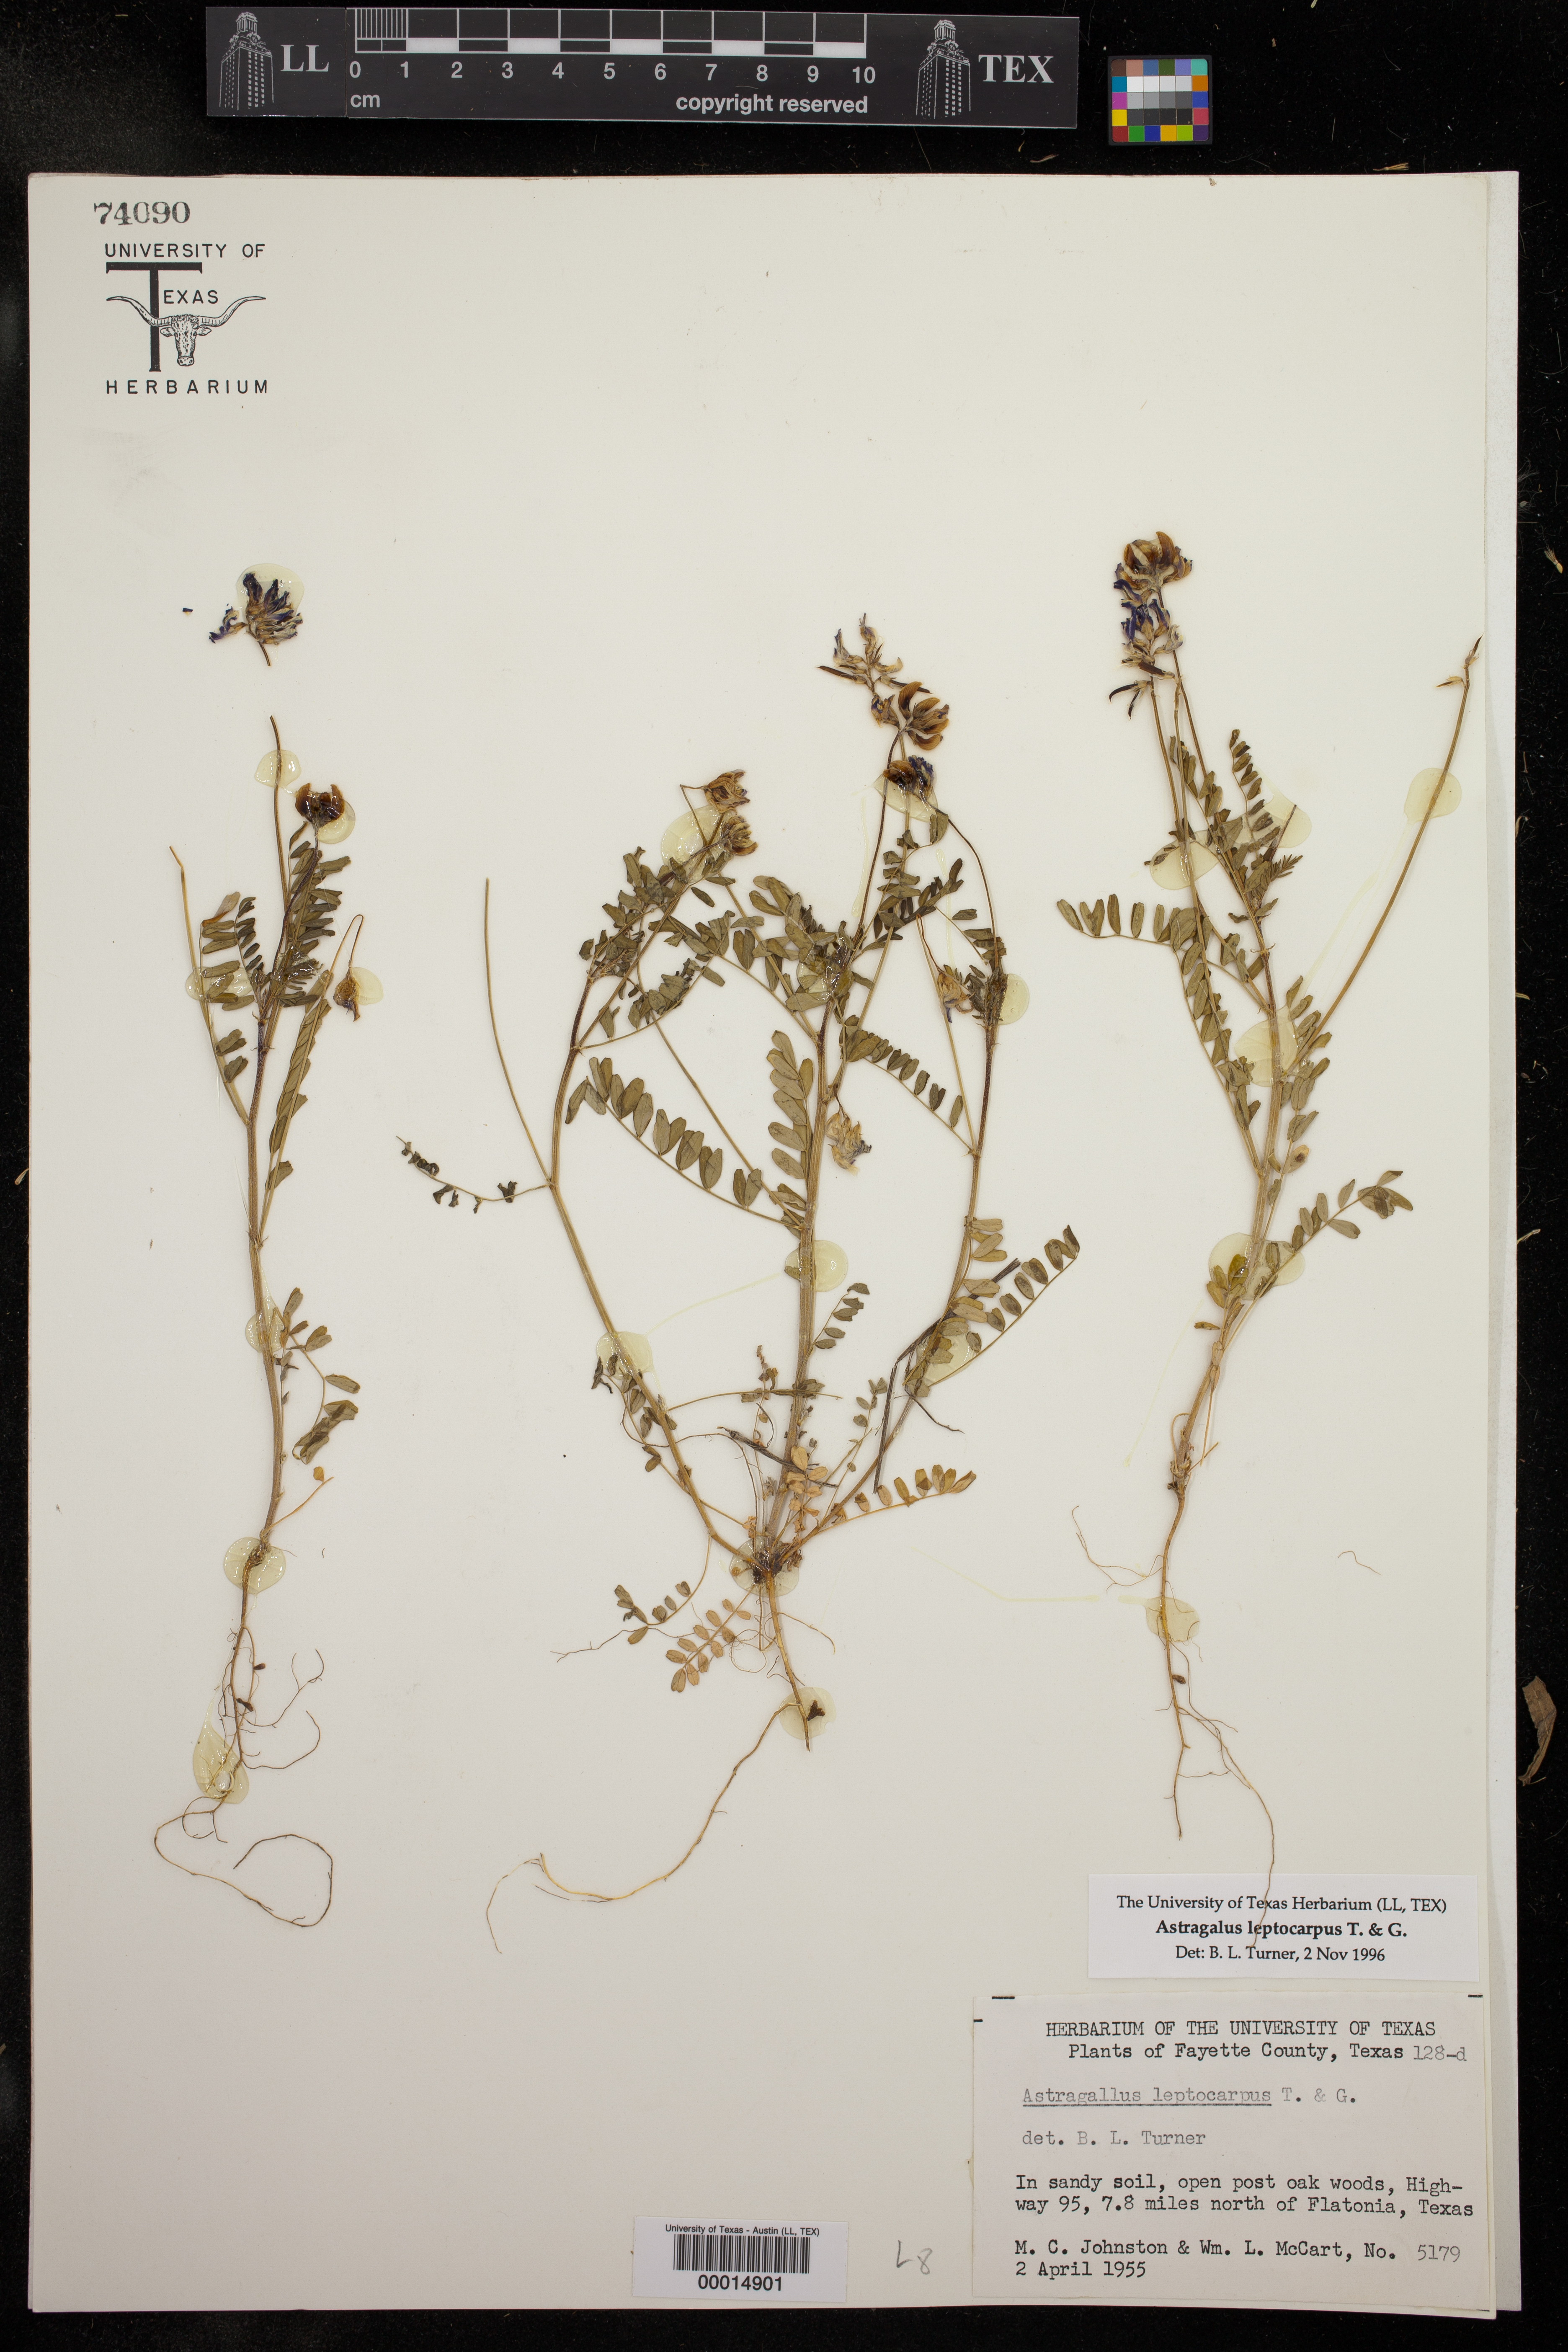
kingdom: Plantae
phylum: Tracheophyta
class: Magnoliopsida
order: Fabales
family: Fabaceae
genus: Astragalus
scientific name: Astragalus leptocarpus
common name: Bodkin milk-vetch
